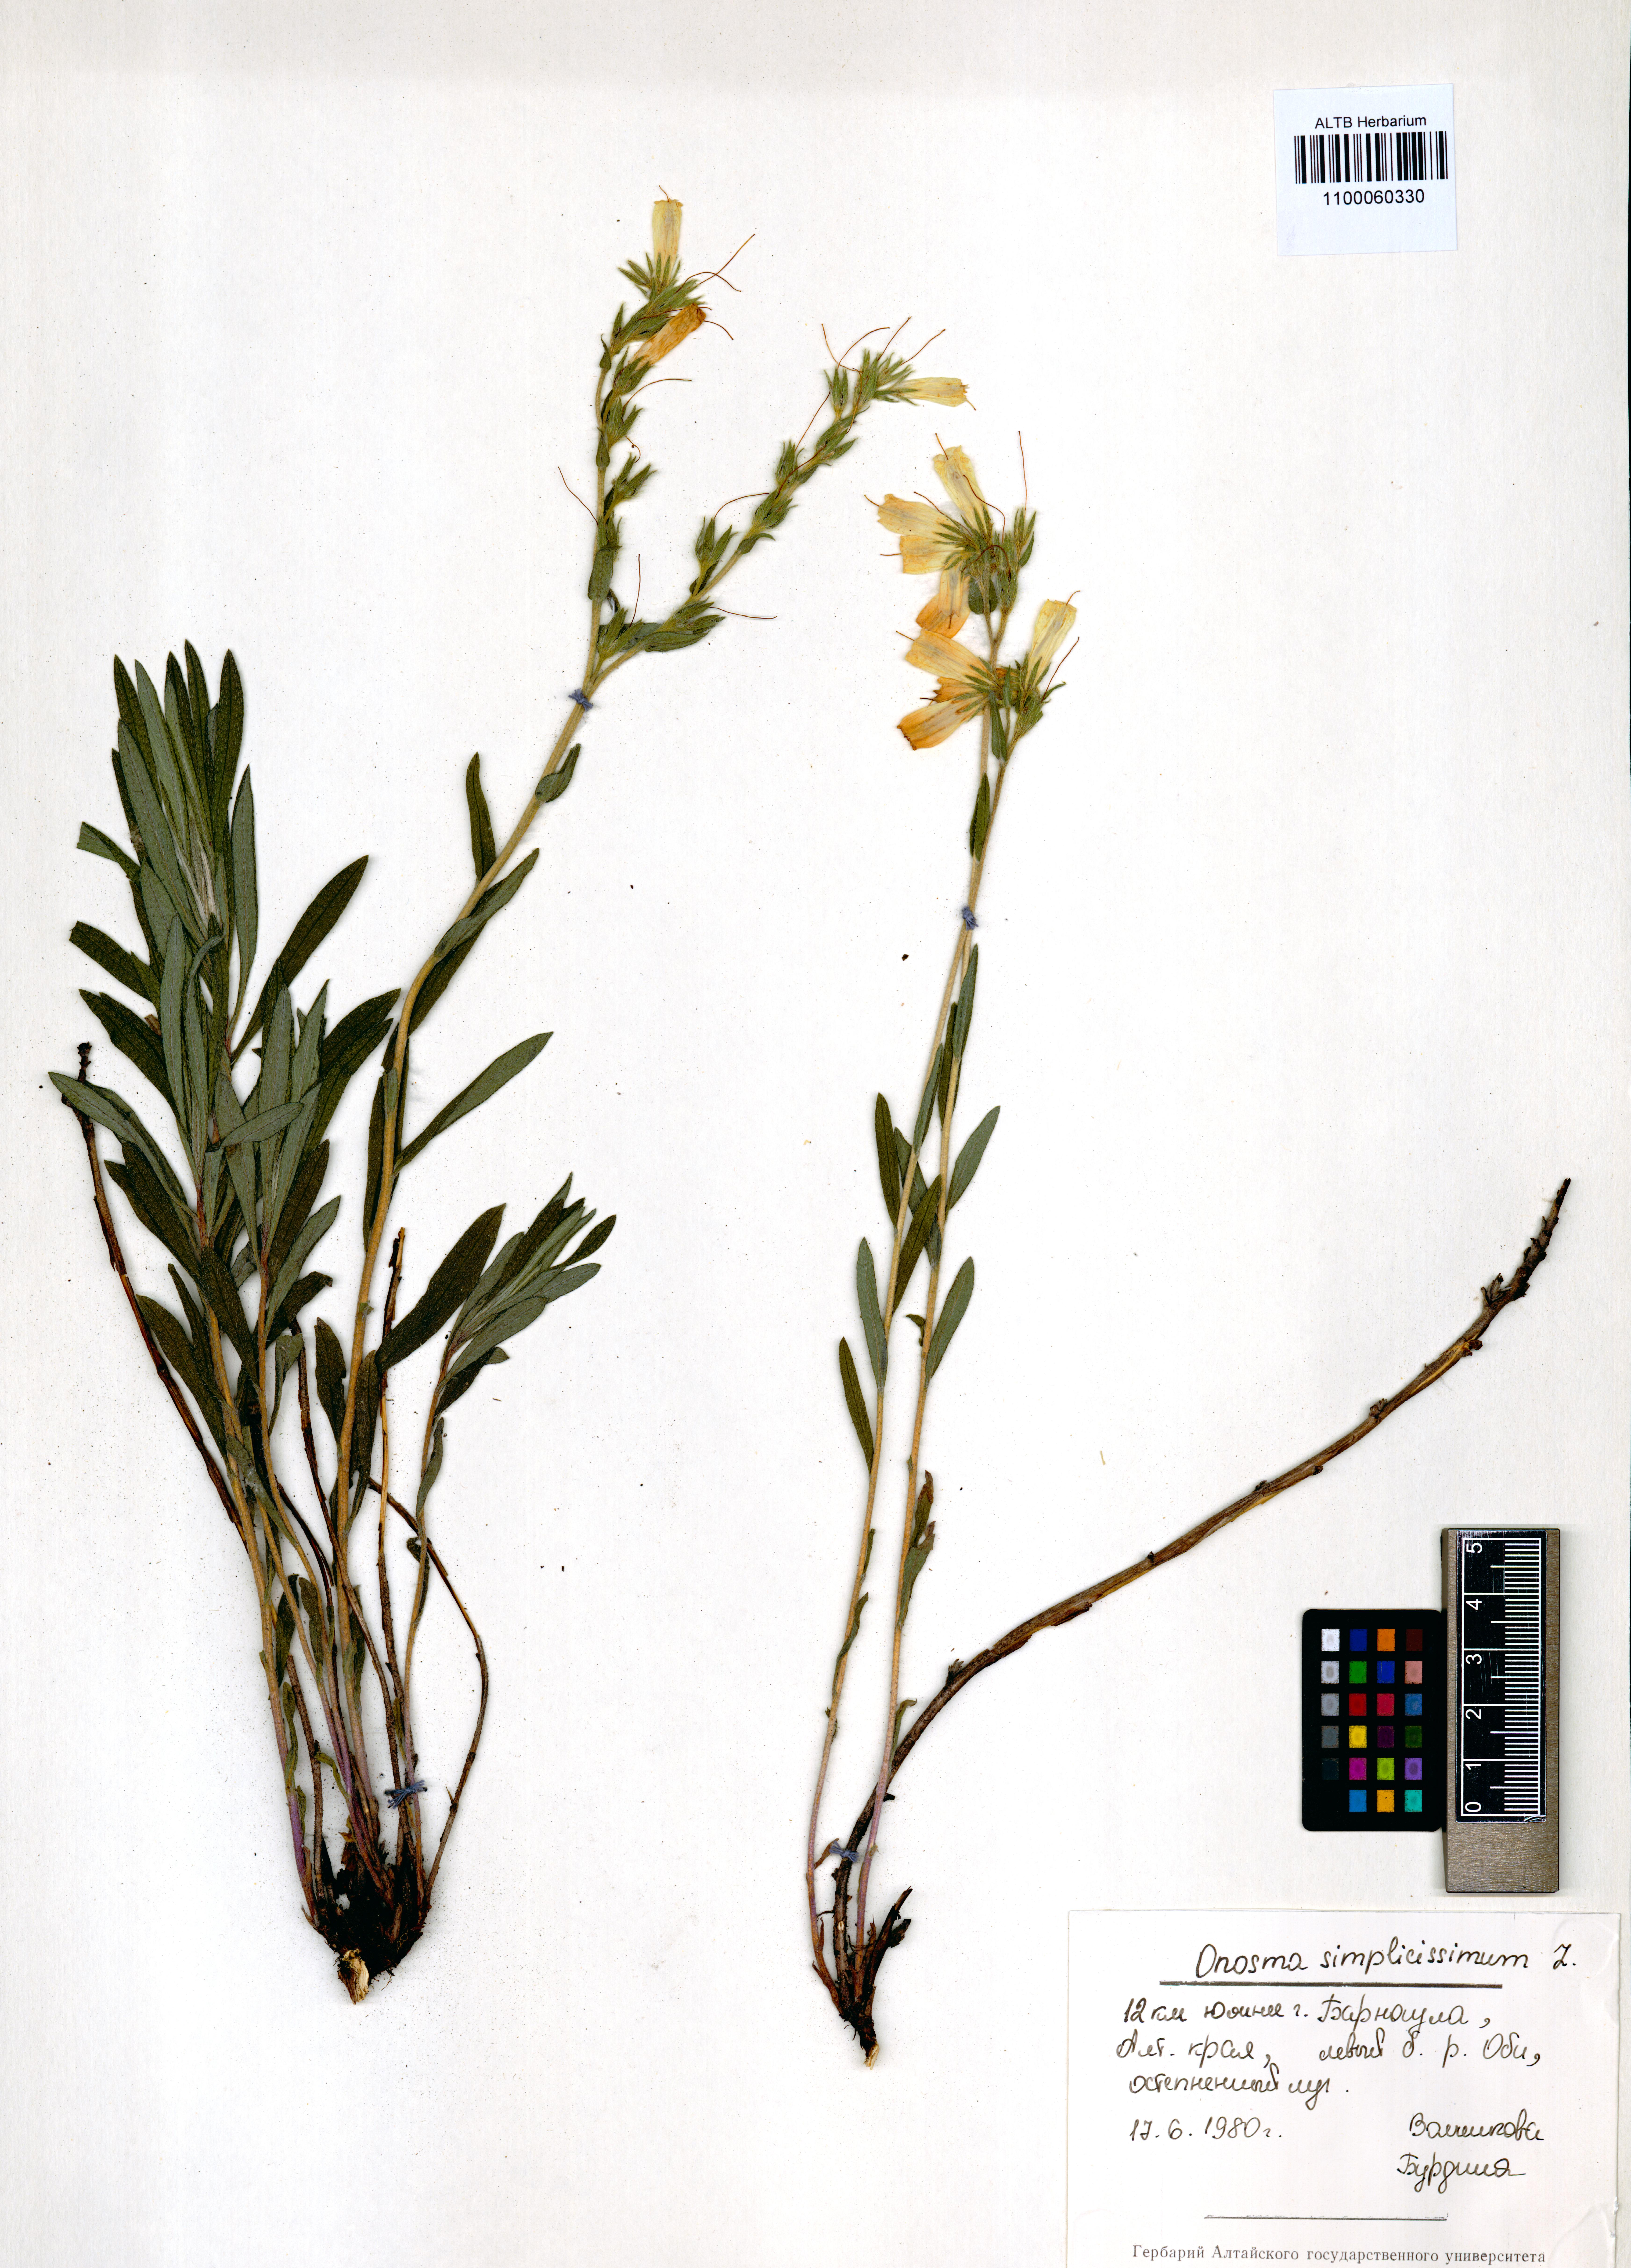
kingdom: Plantae
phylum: Tracheophyta
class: Magnoliopsida
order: Boraginales
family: Boraginaceae
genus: Onosma
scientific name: Onosma simplicissima
